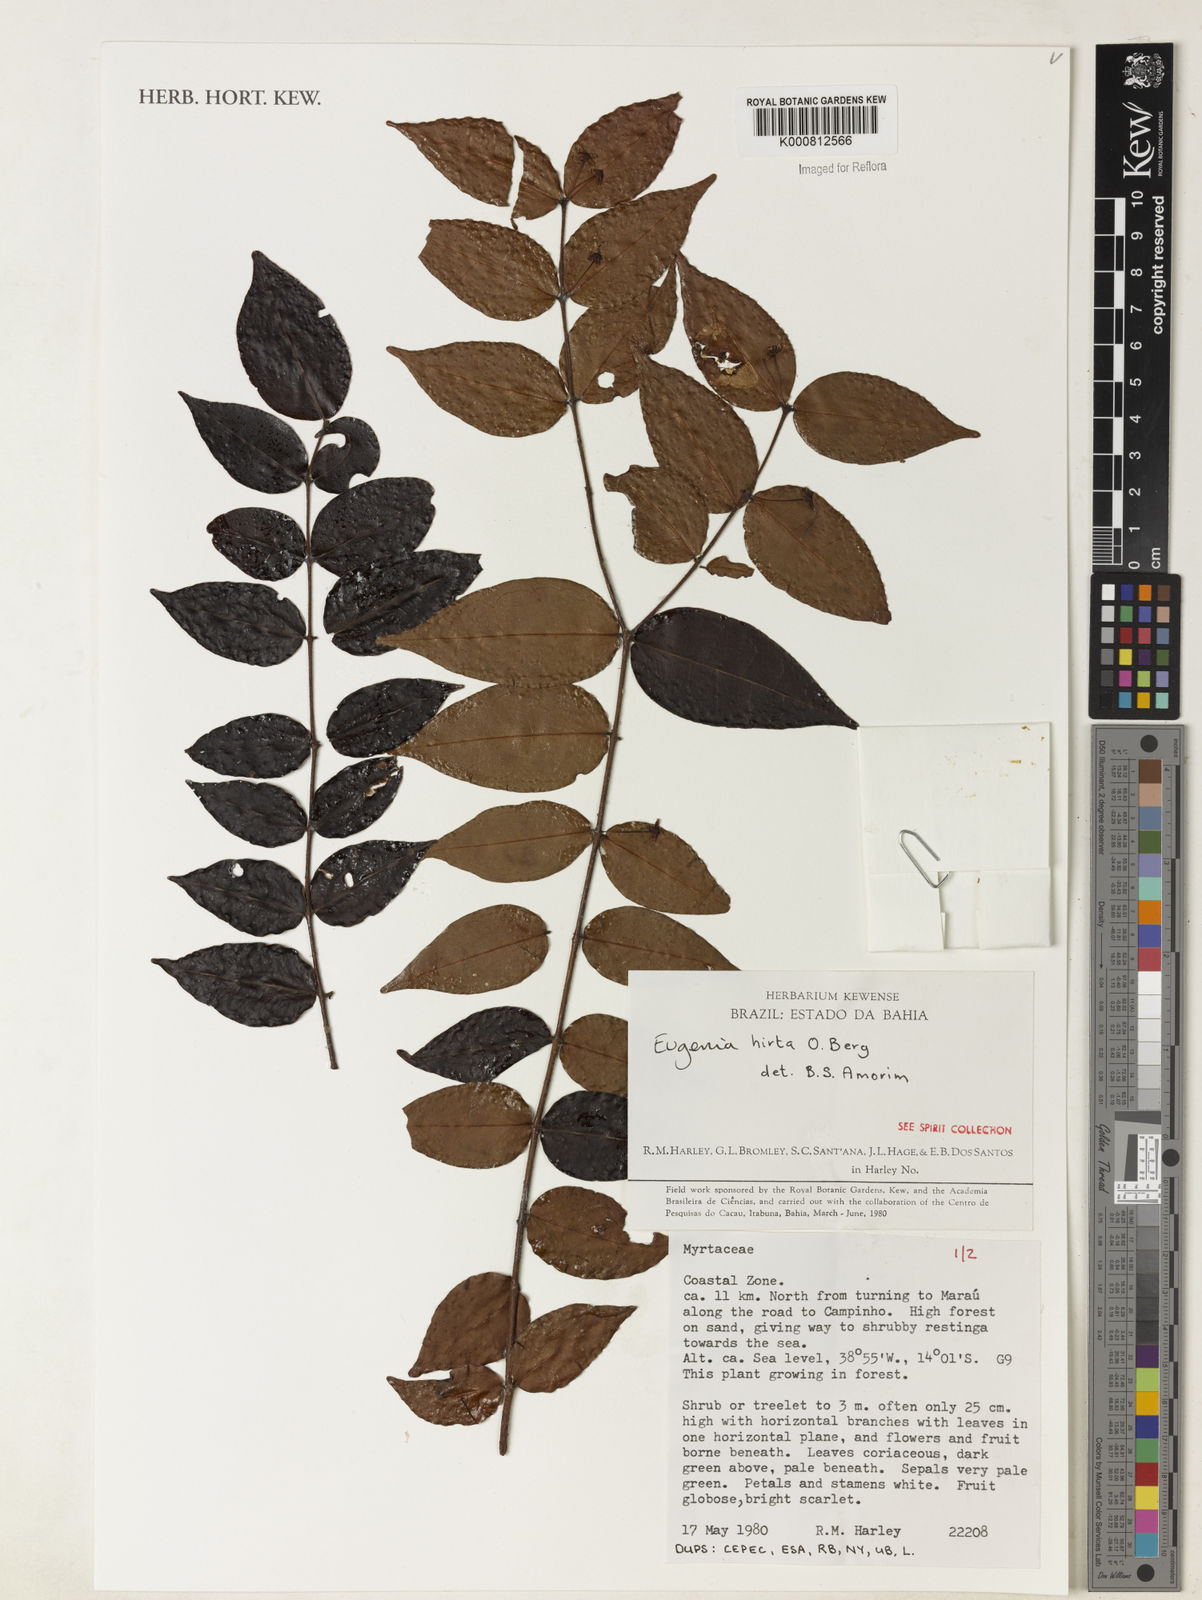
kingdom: Plantae
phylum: Tracheophyta
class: Magnoliopsida
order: Myrtales
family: Myrtaceae
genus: Eugenia
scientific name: Eugenia hirta
